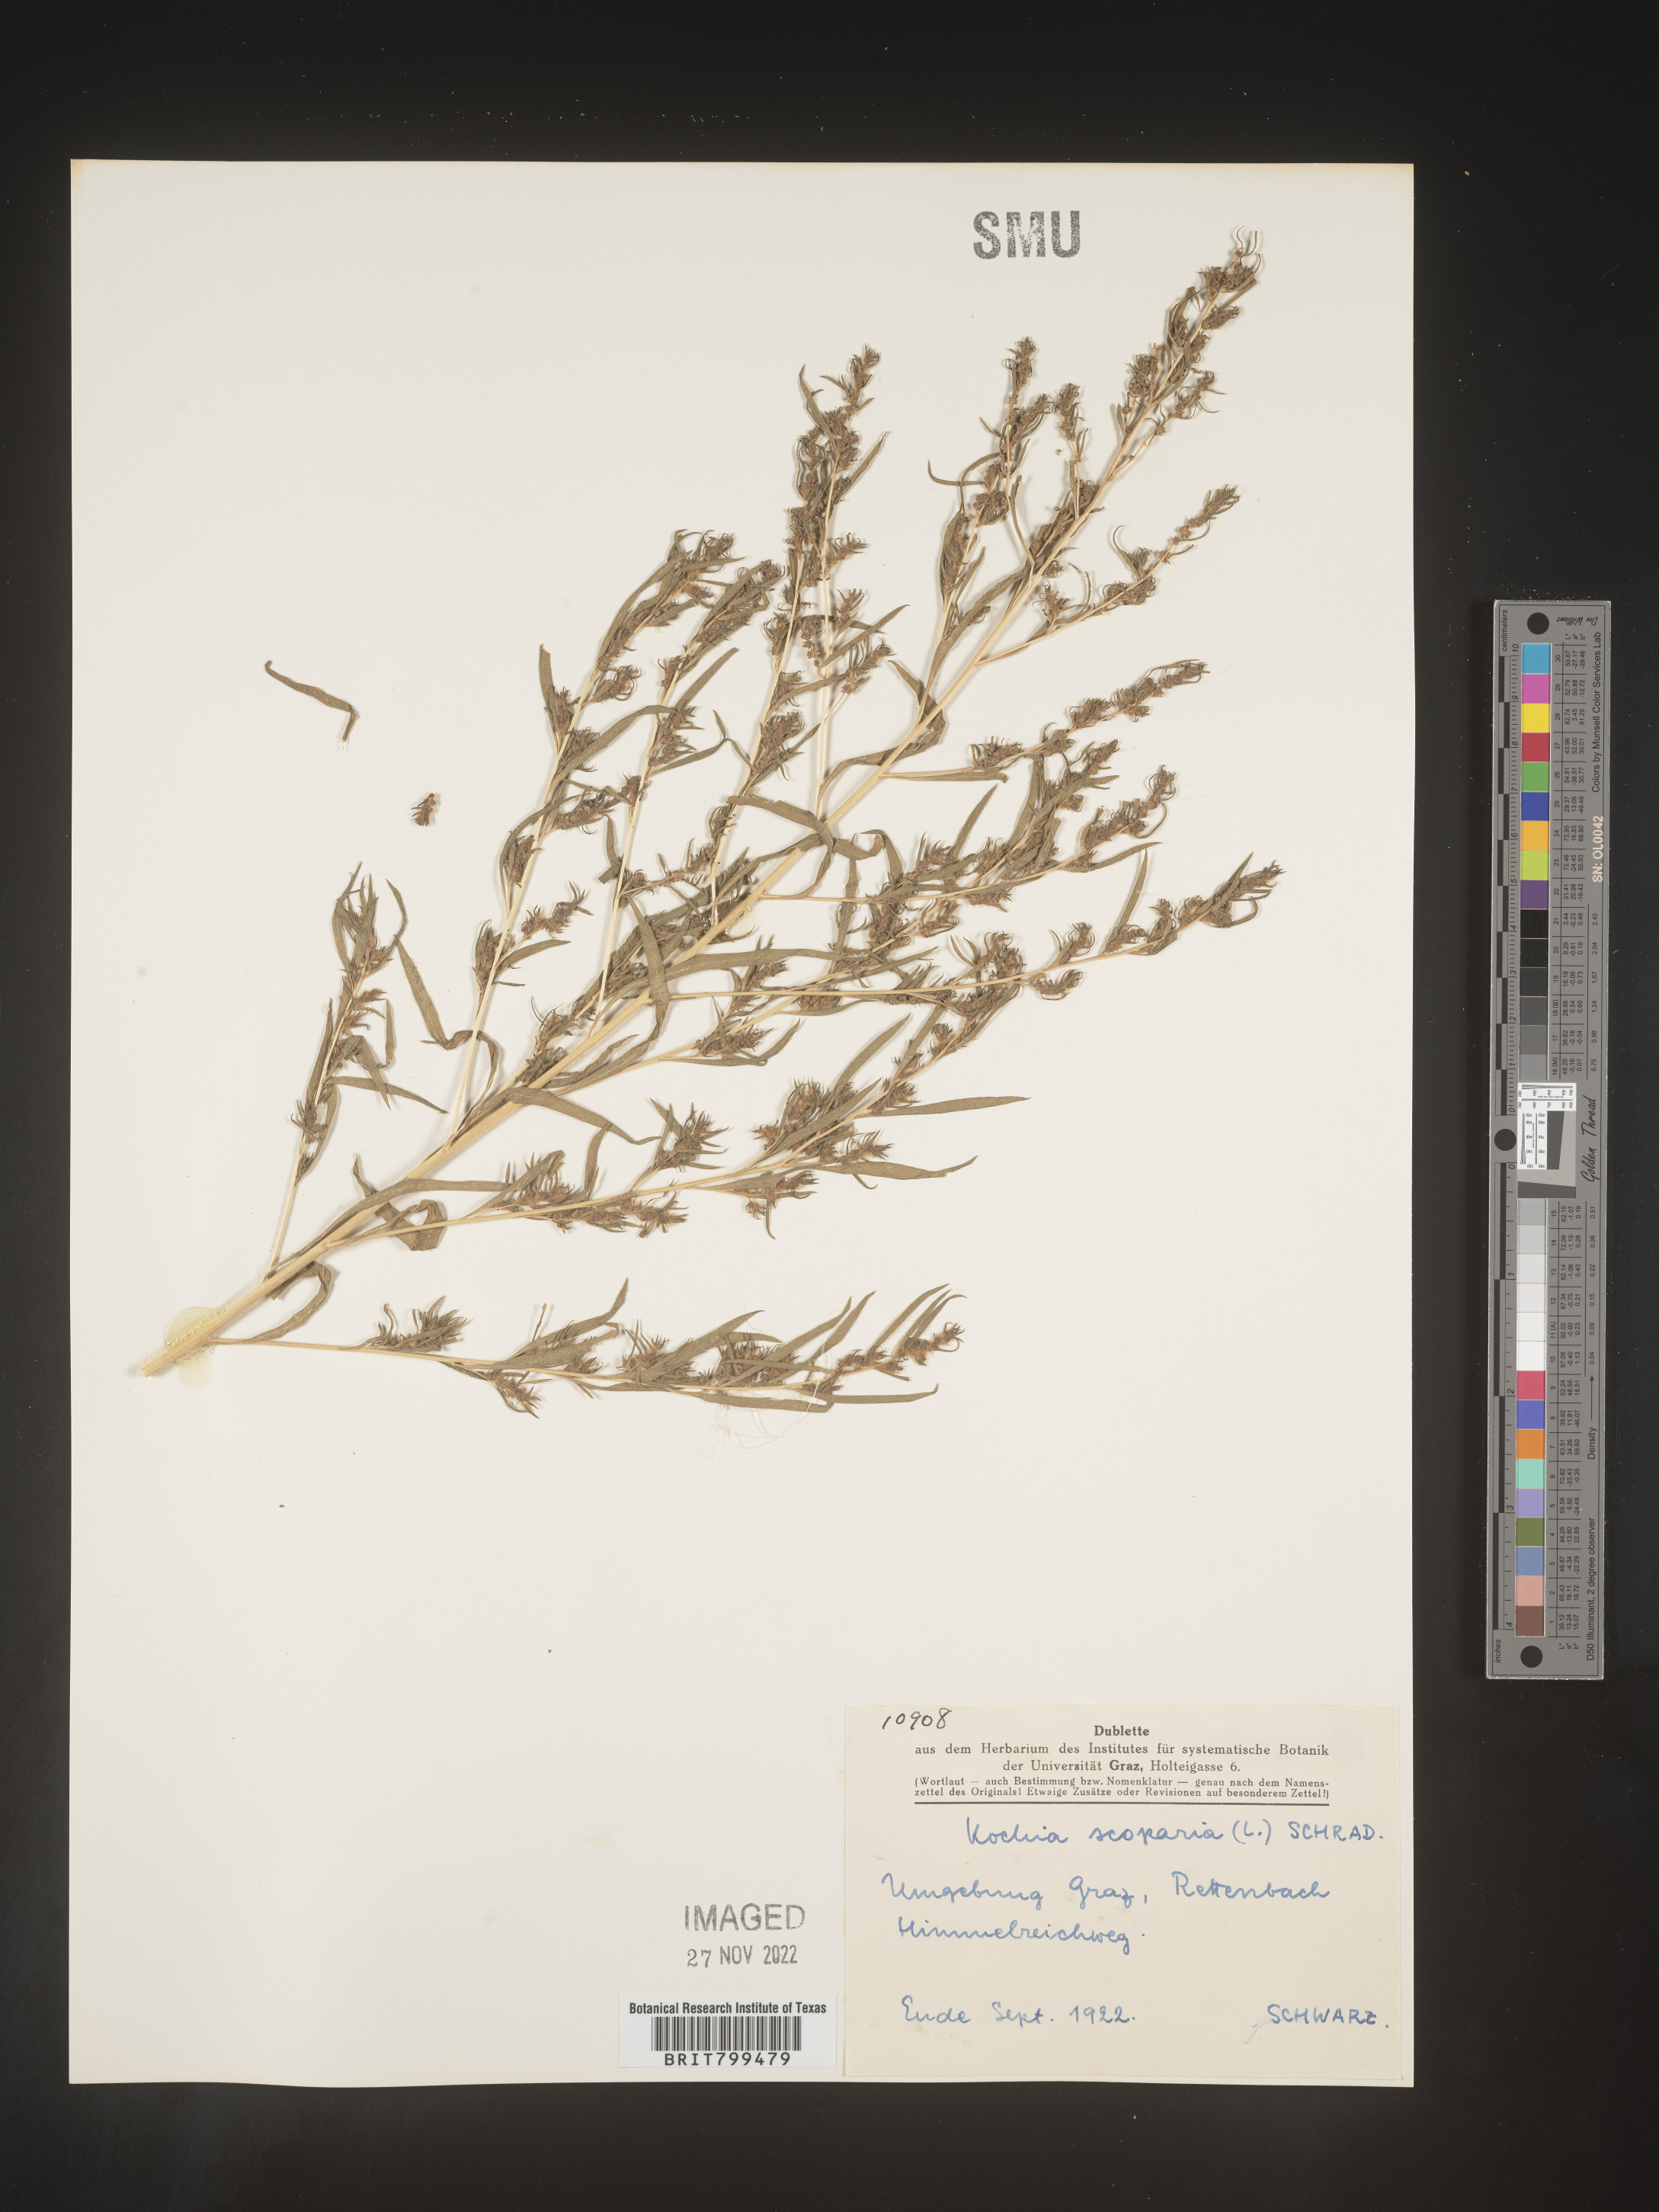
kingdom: Plantae
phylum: Tracheophyta
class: Magnoliopsida
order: Caryophyllales
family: Amaranthaceae
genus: Bassia
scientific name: Bassia
